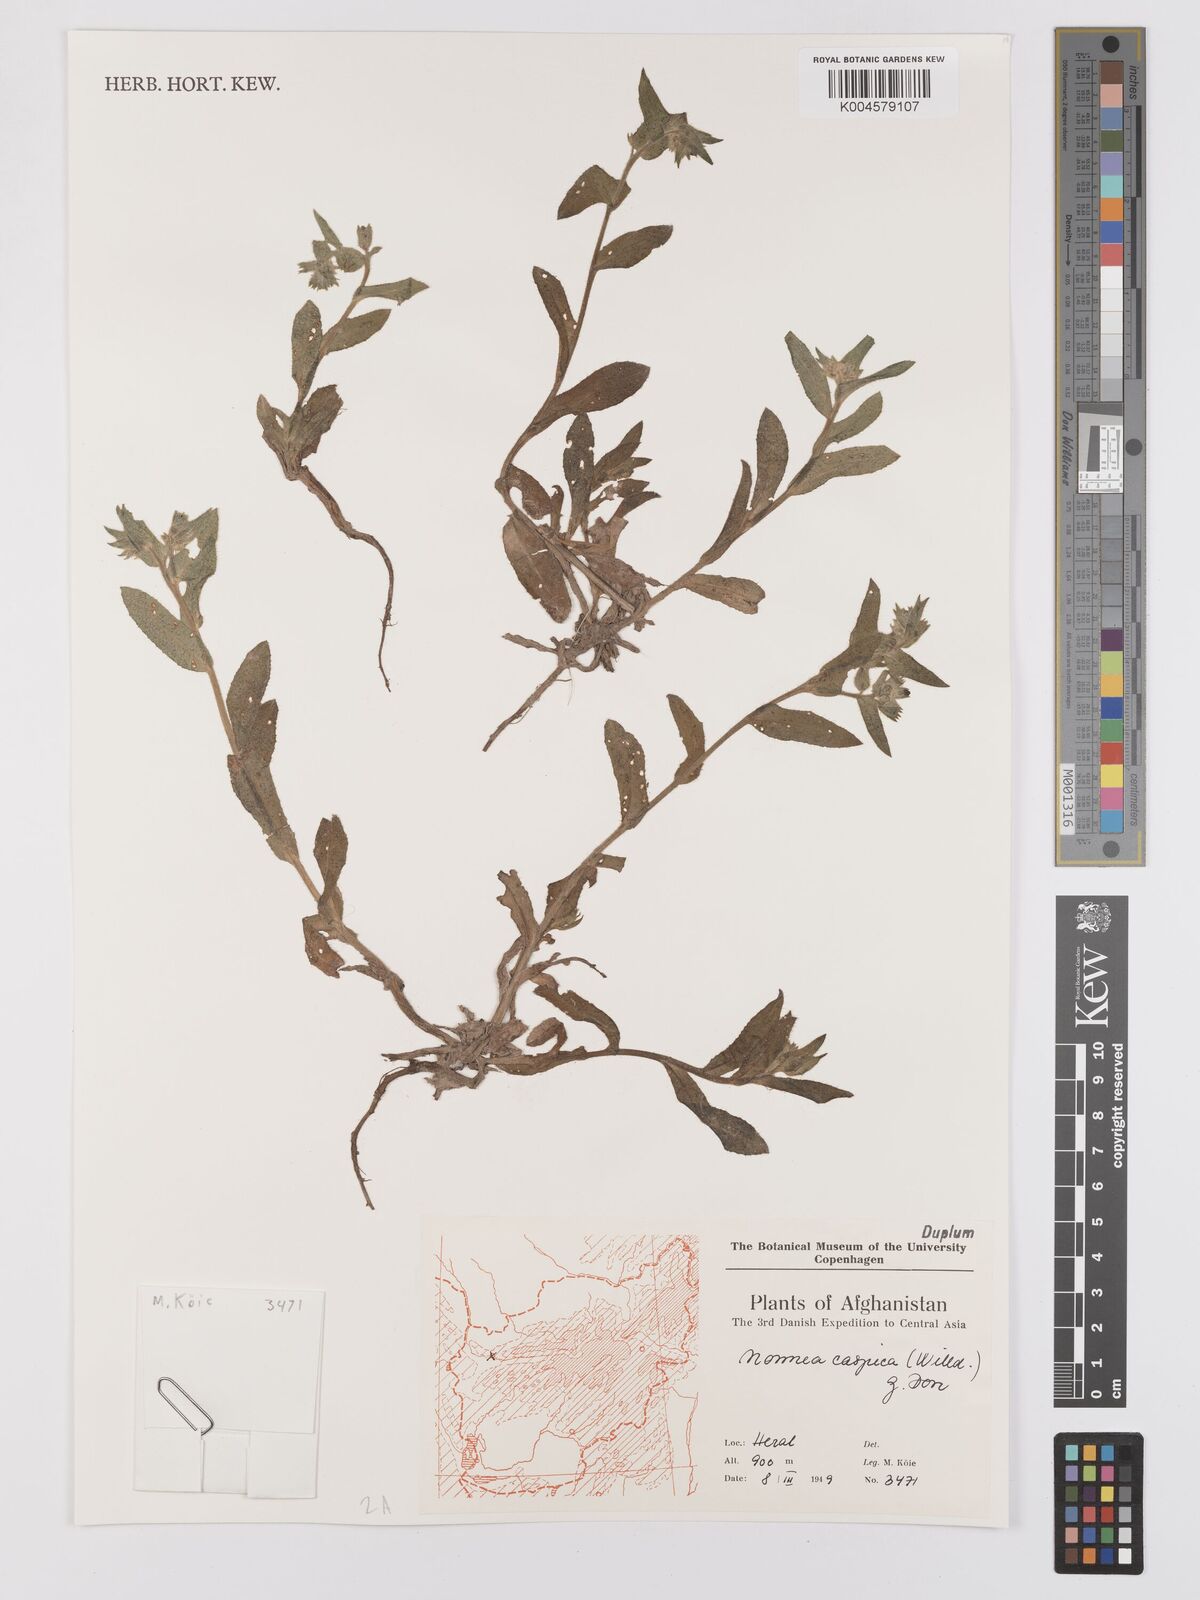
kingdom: Plantae
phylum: Tracheophyta
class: Magnoliopsida
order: Boraginales
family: Boraginaceae
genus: Nonea
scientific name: Nonea caspica
